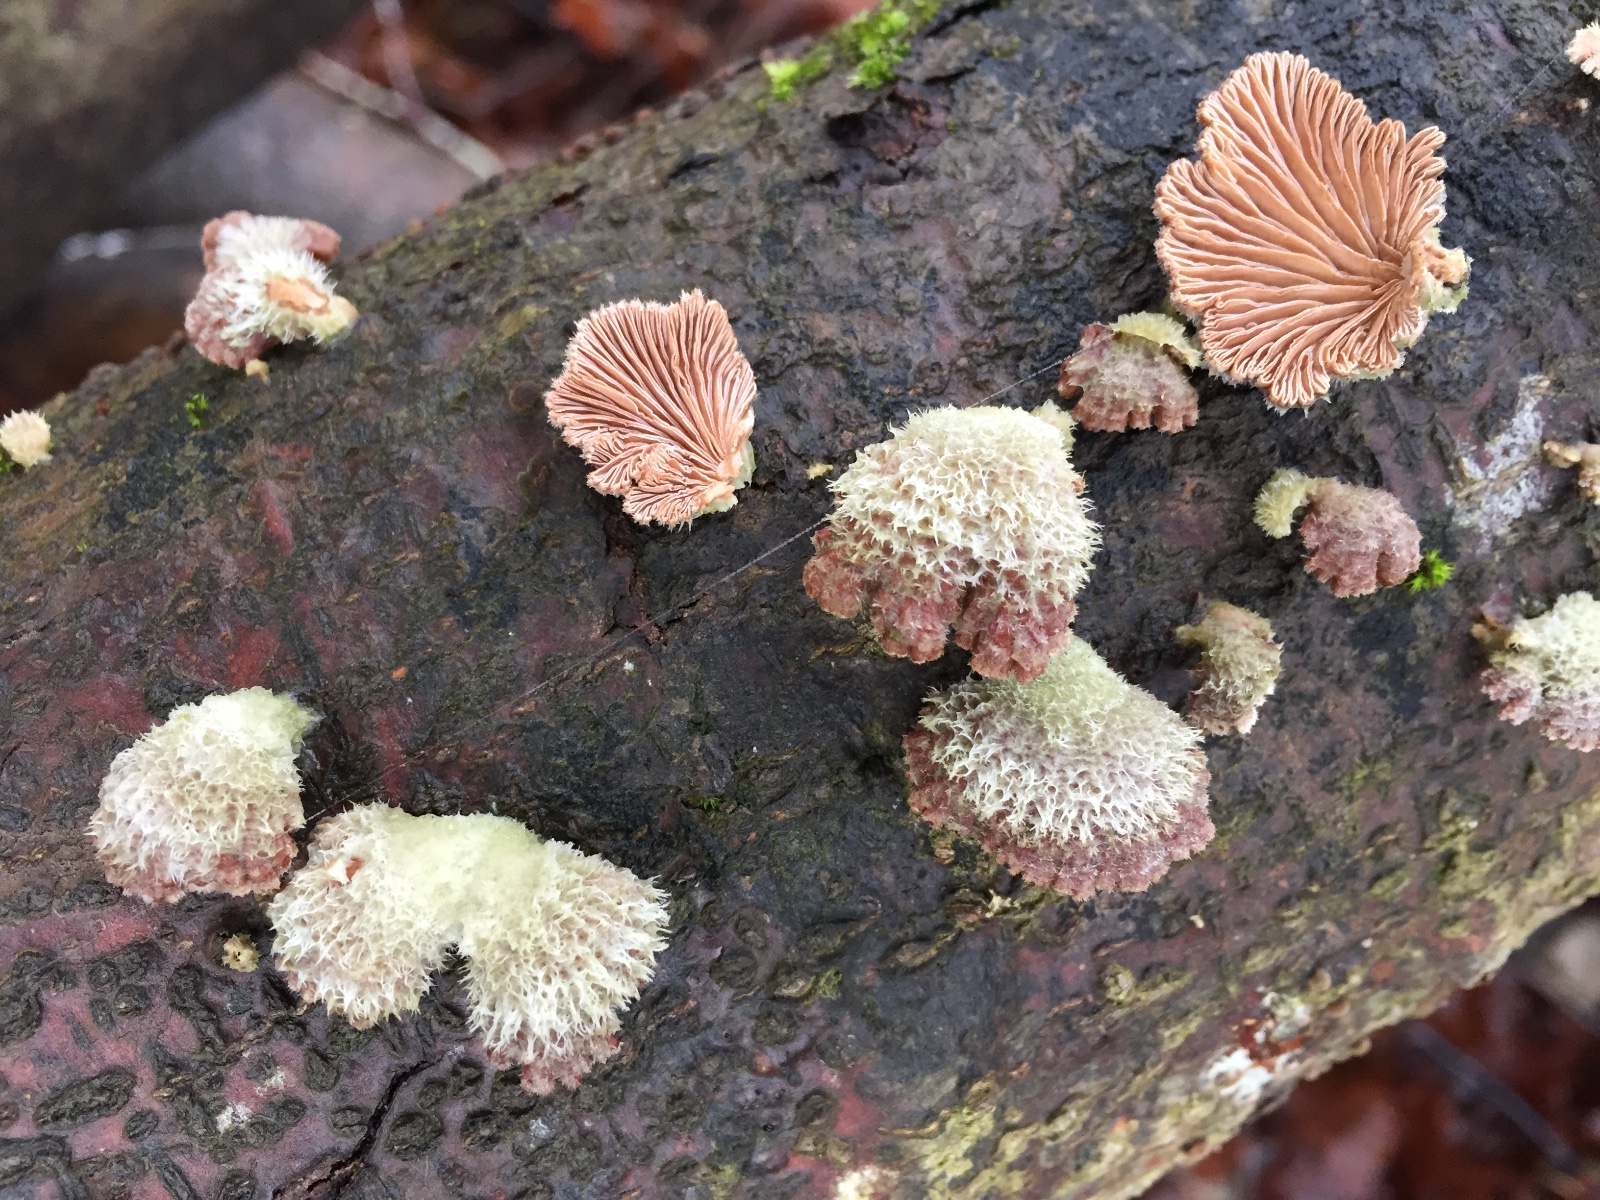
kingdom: Fungi
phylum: Basidiomycota
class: Agaricomycetes
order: Agaricales
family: Schizophyllaceae
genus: Schizophyllum
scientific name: Schizophyllum commune
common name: kløvblad
